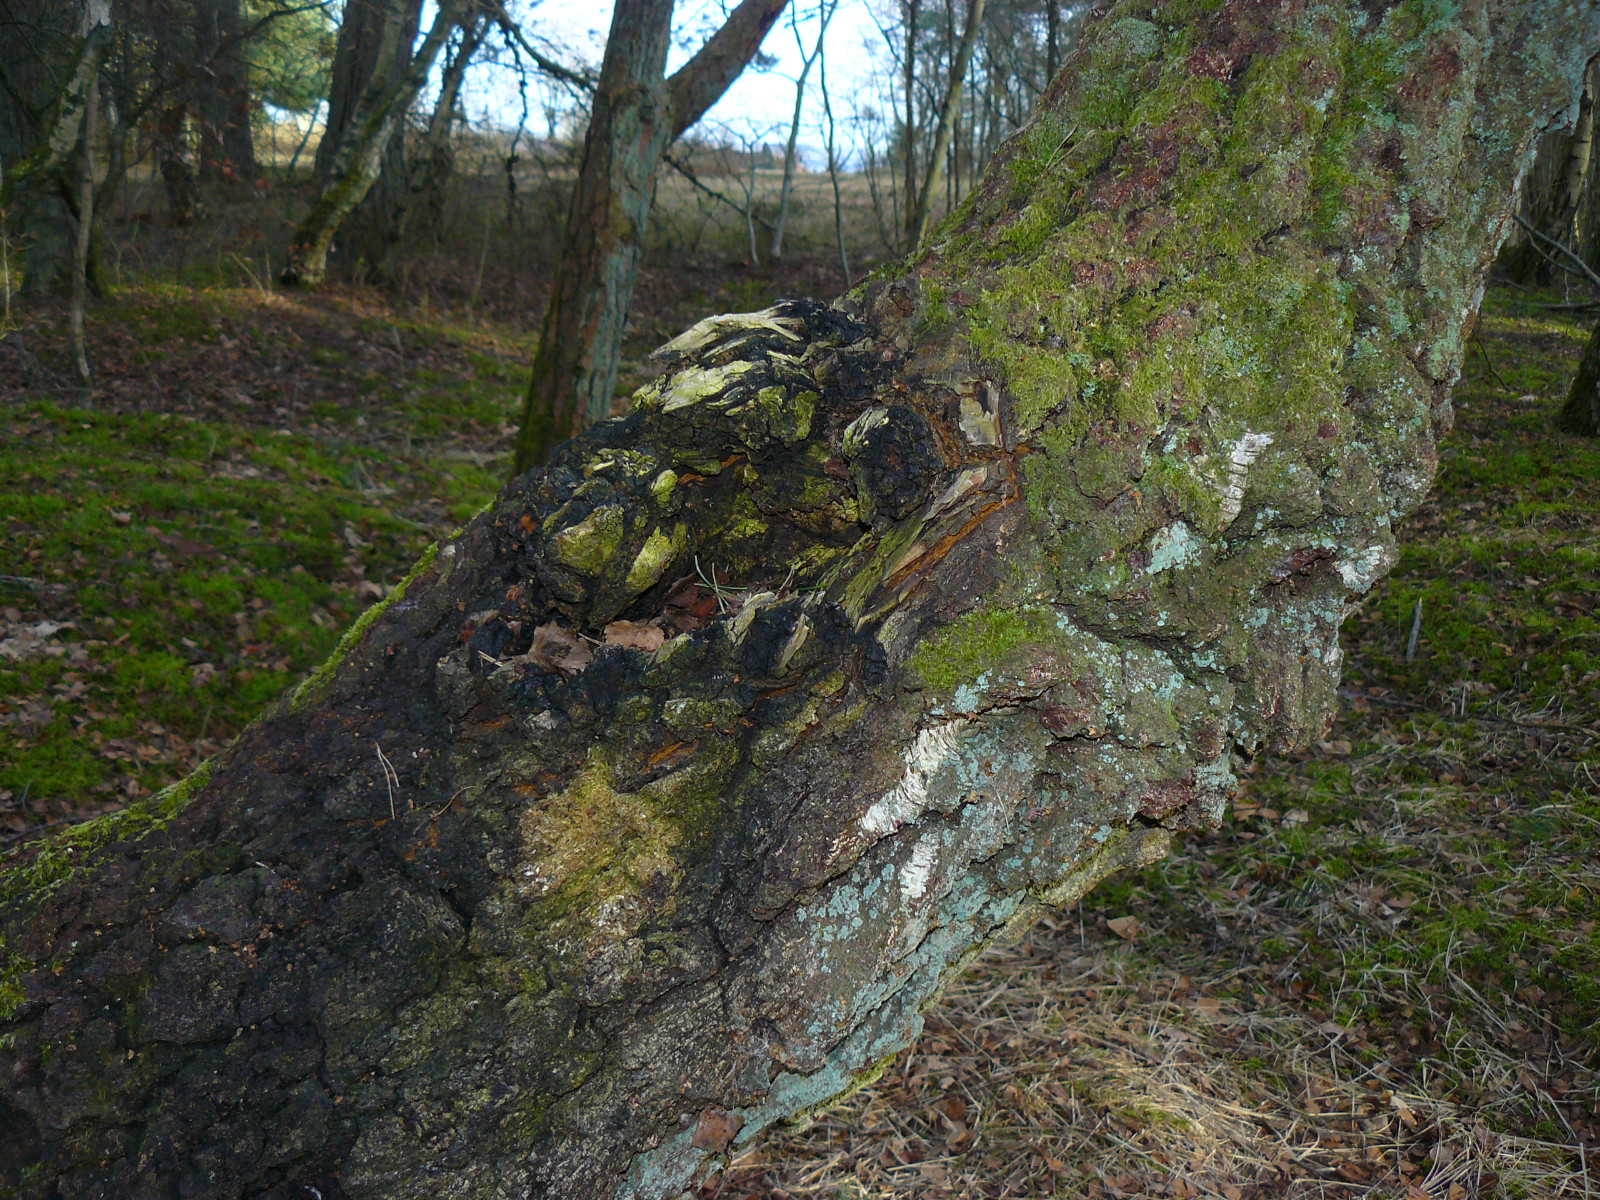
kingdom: Fungi
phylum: Basidiomycota
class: Agaricomycetes
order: Hymenochaetales
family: Hymenochaetaceae
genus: Inonotus
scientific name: Inonotus obliquus
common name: birke-spejlporesvamp
